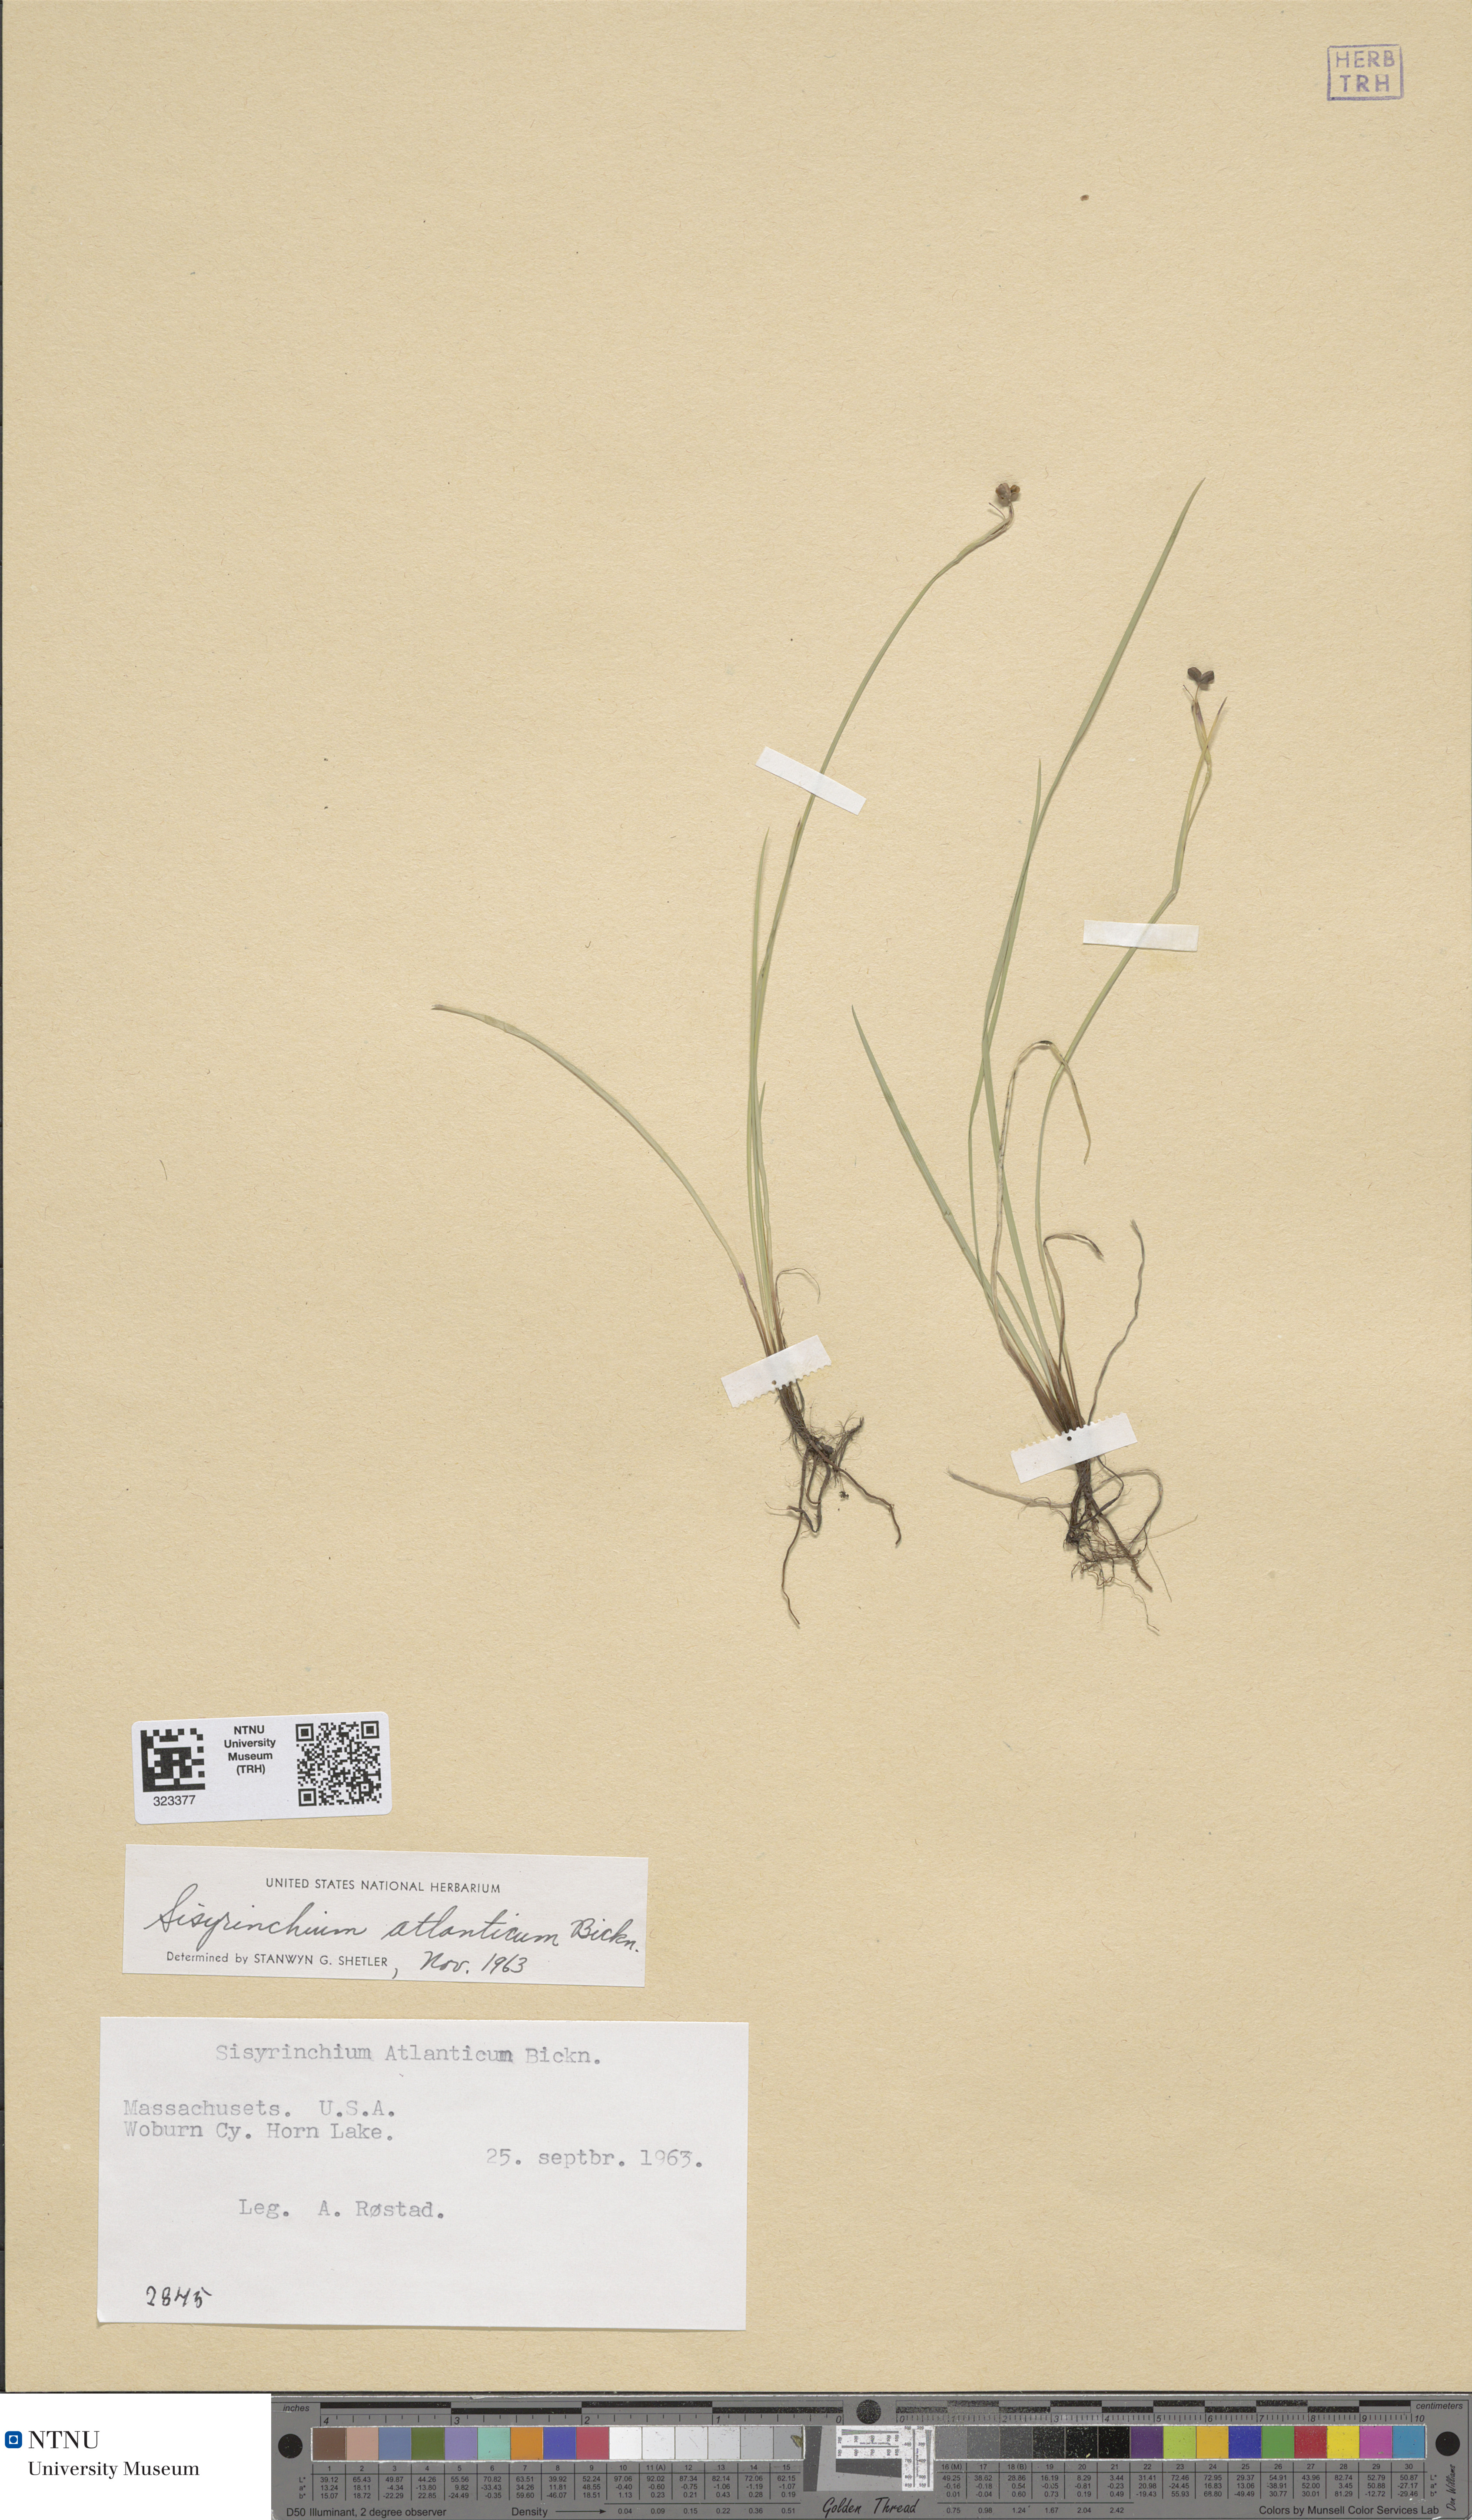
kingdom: Plantae
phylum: Tracheophyta
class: Liliopsida
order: Asparagales
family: Iridaceae
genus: Sisyrinchium
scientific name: Sisyrinchium atlanticum
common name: Eastern blue-eyed-grass
